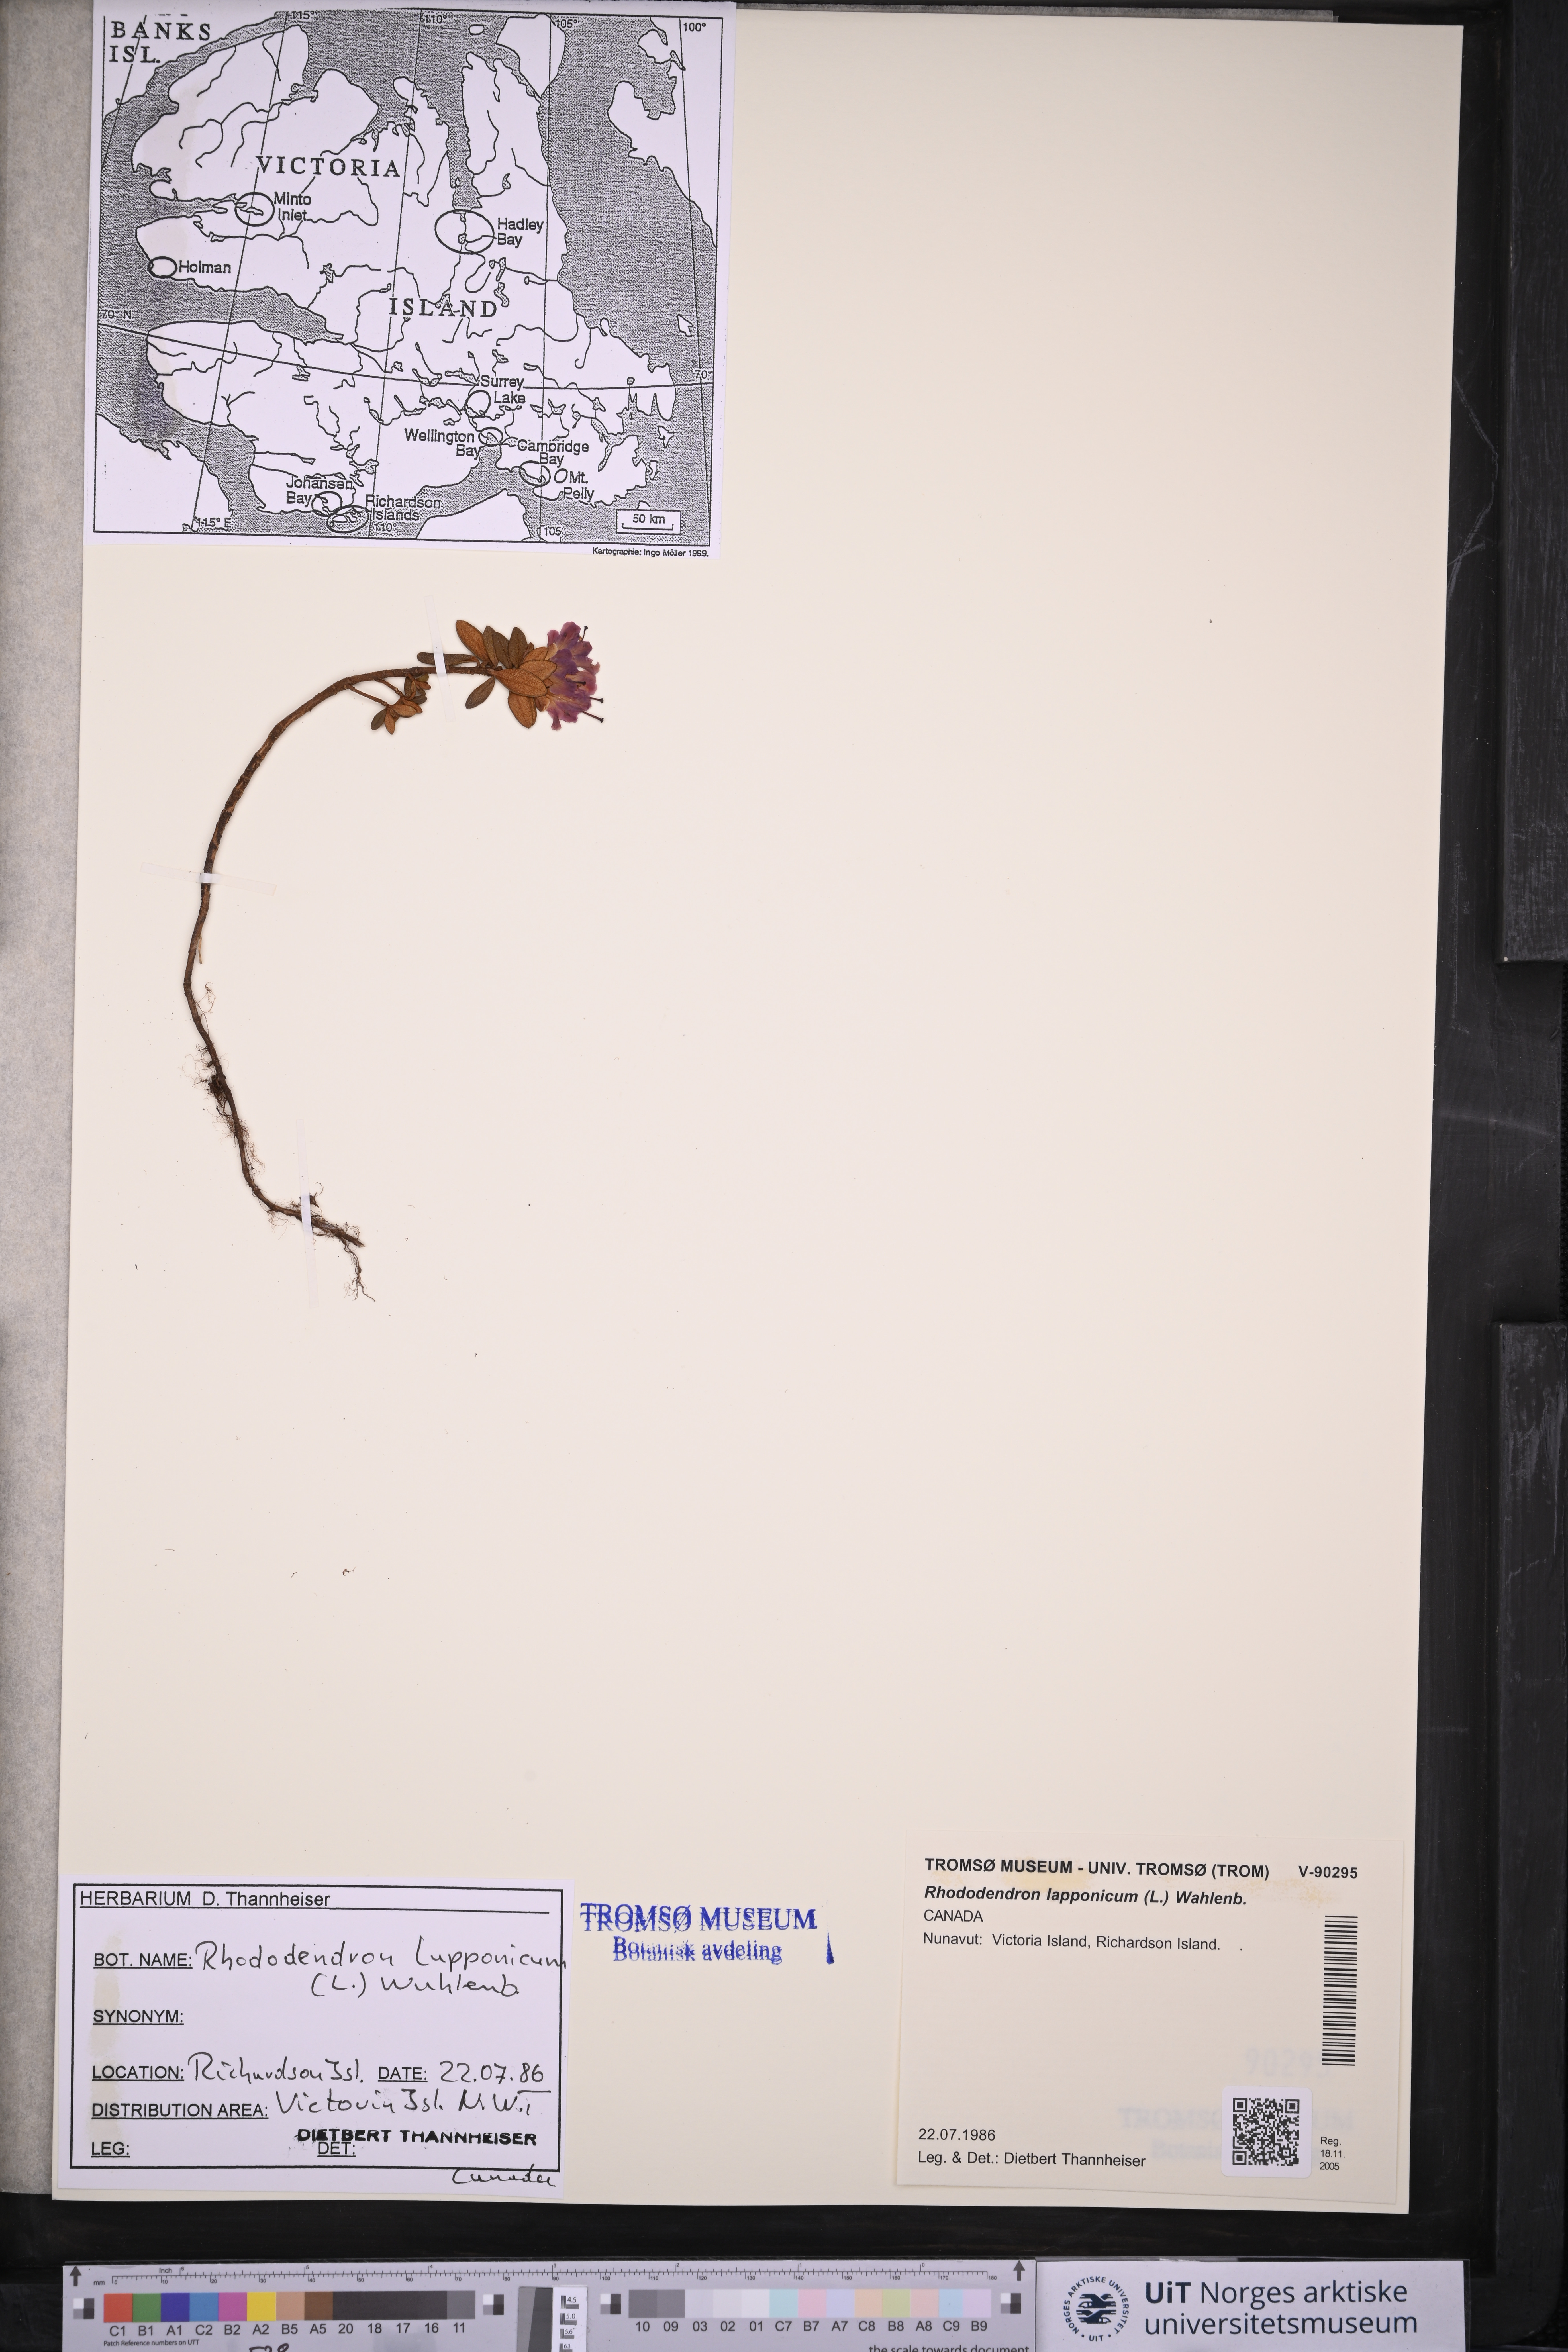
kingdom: Plantae
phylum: Tracheophyta
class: Magnoliopsida
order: Ericales
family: Ericaceae
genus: Rhododendron
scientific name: Rhododendron lapponicum
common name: Lapland rhododendron
